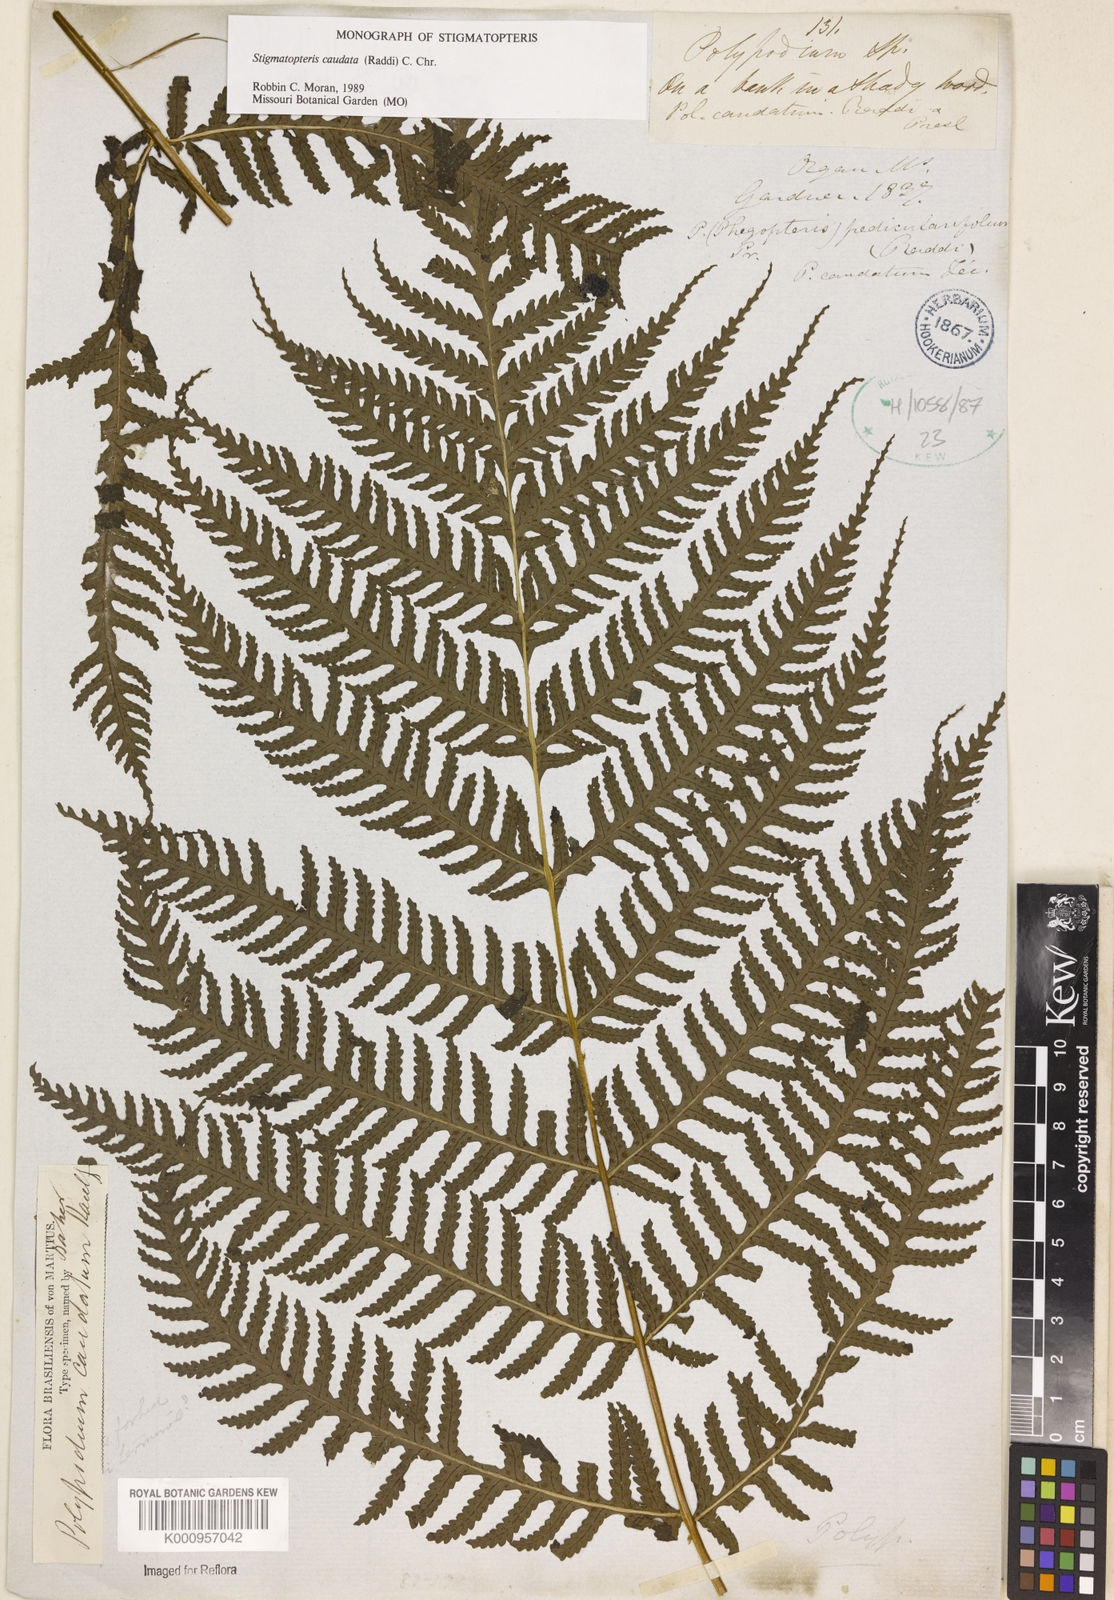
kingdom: Plantae
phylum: Tracheophyta
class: Polypodiopsida
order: Polypodiales
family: Dryopteridaceae
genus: Stigmatopteris
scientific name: Stigmatopteris caudata
